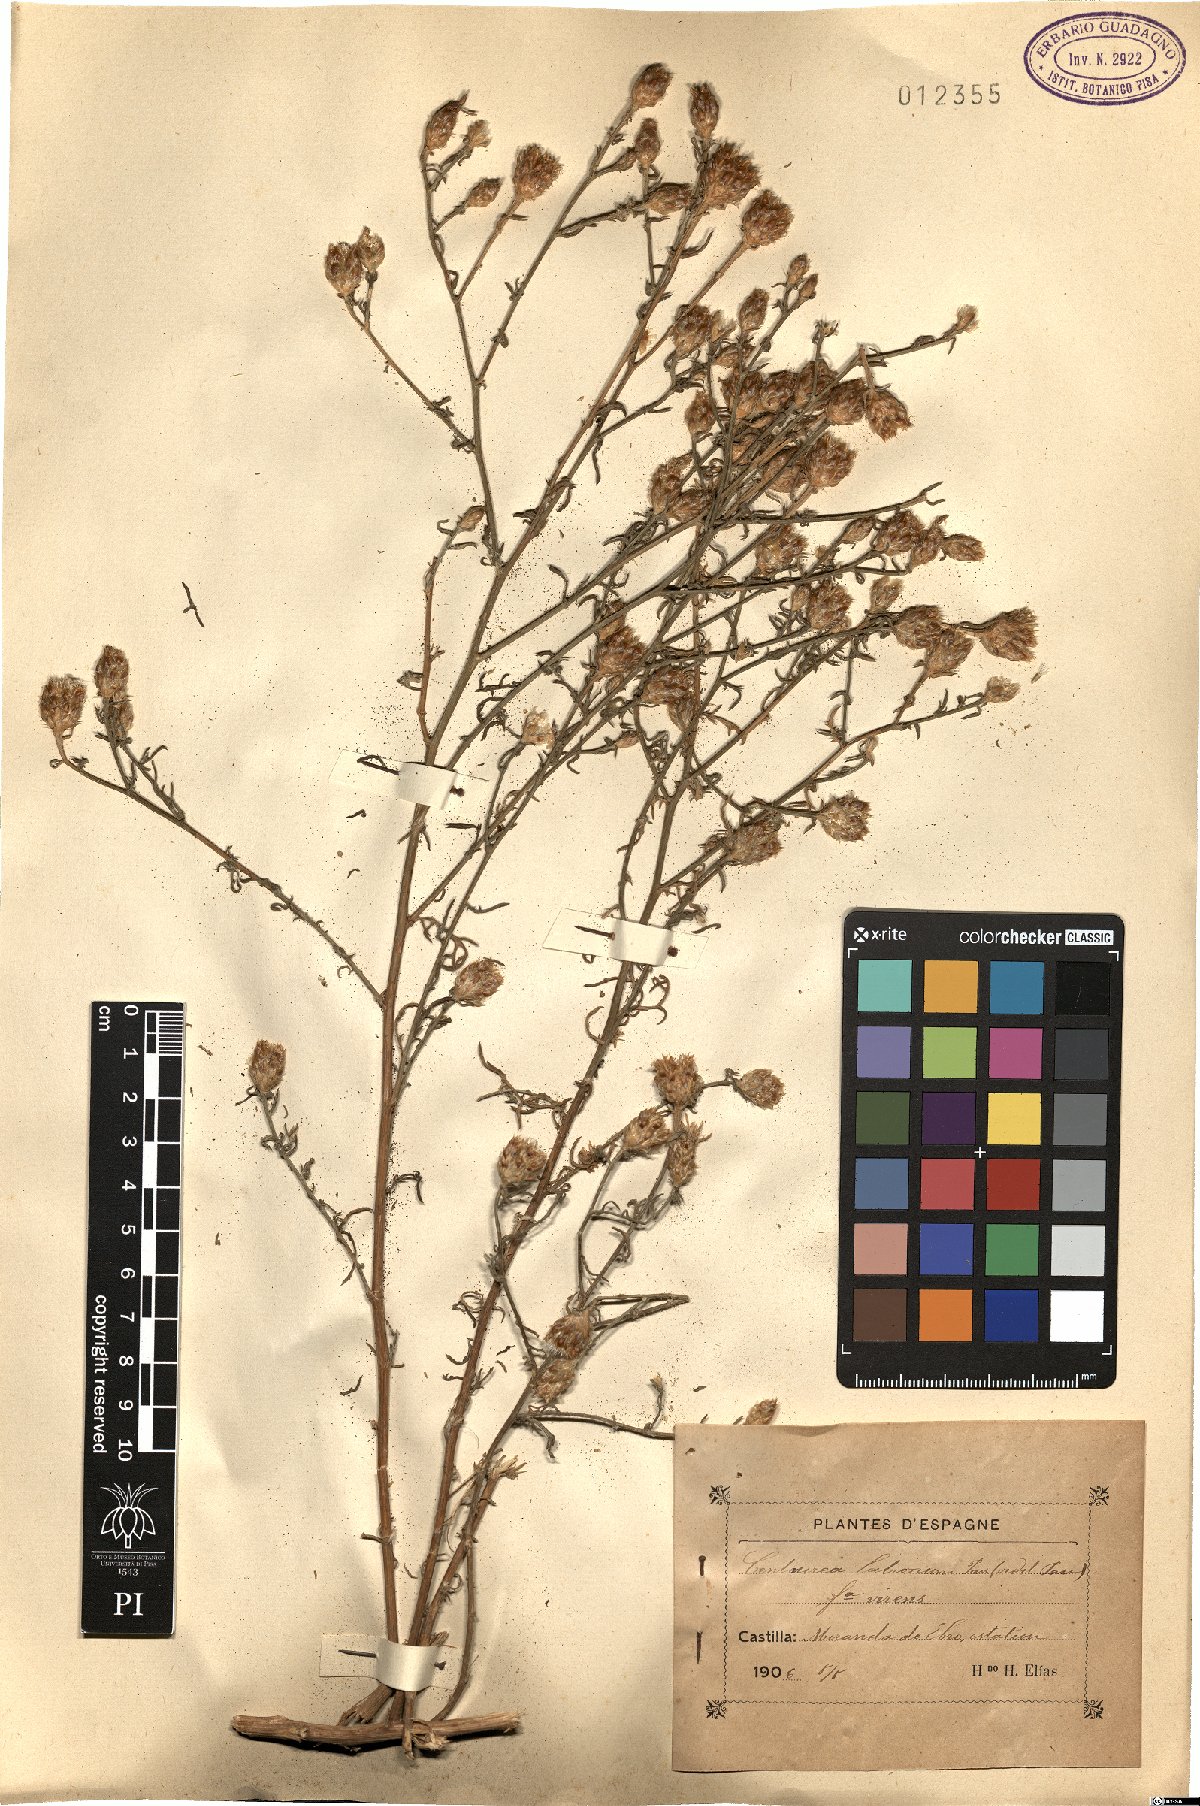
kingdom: Plantae
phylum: Tracheophyta
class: Magnoliopsida
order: Asterales
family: Asteraceae
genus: Centaurea
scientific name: Centaurea alba
